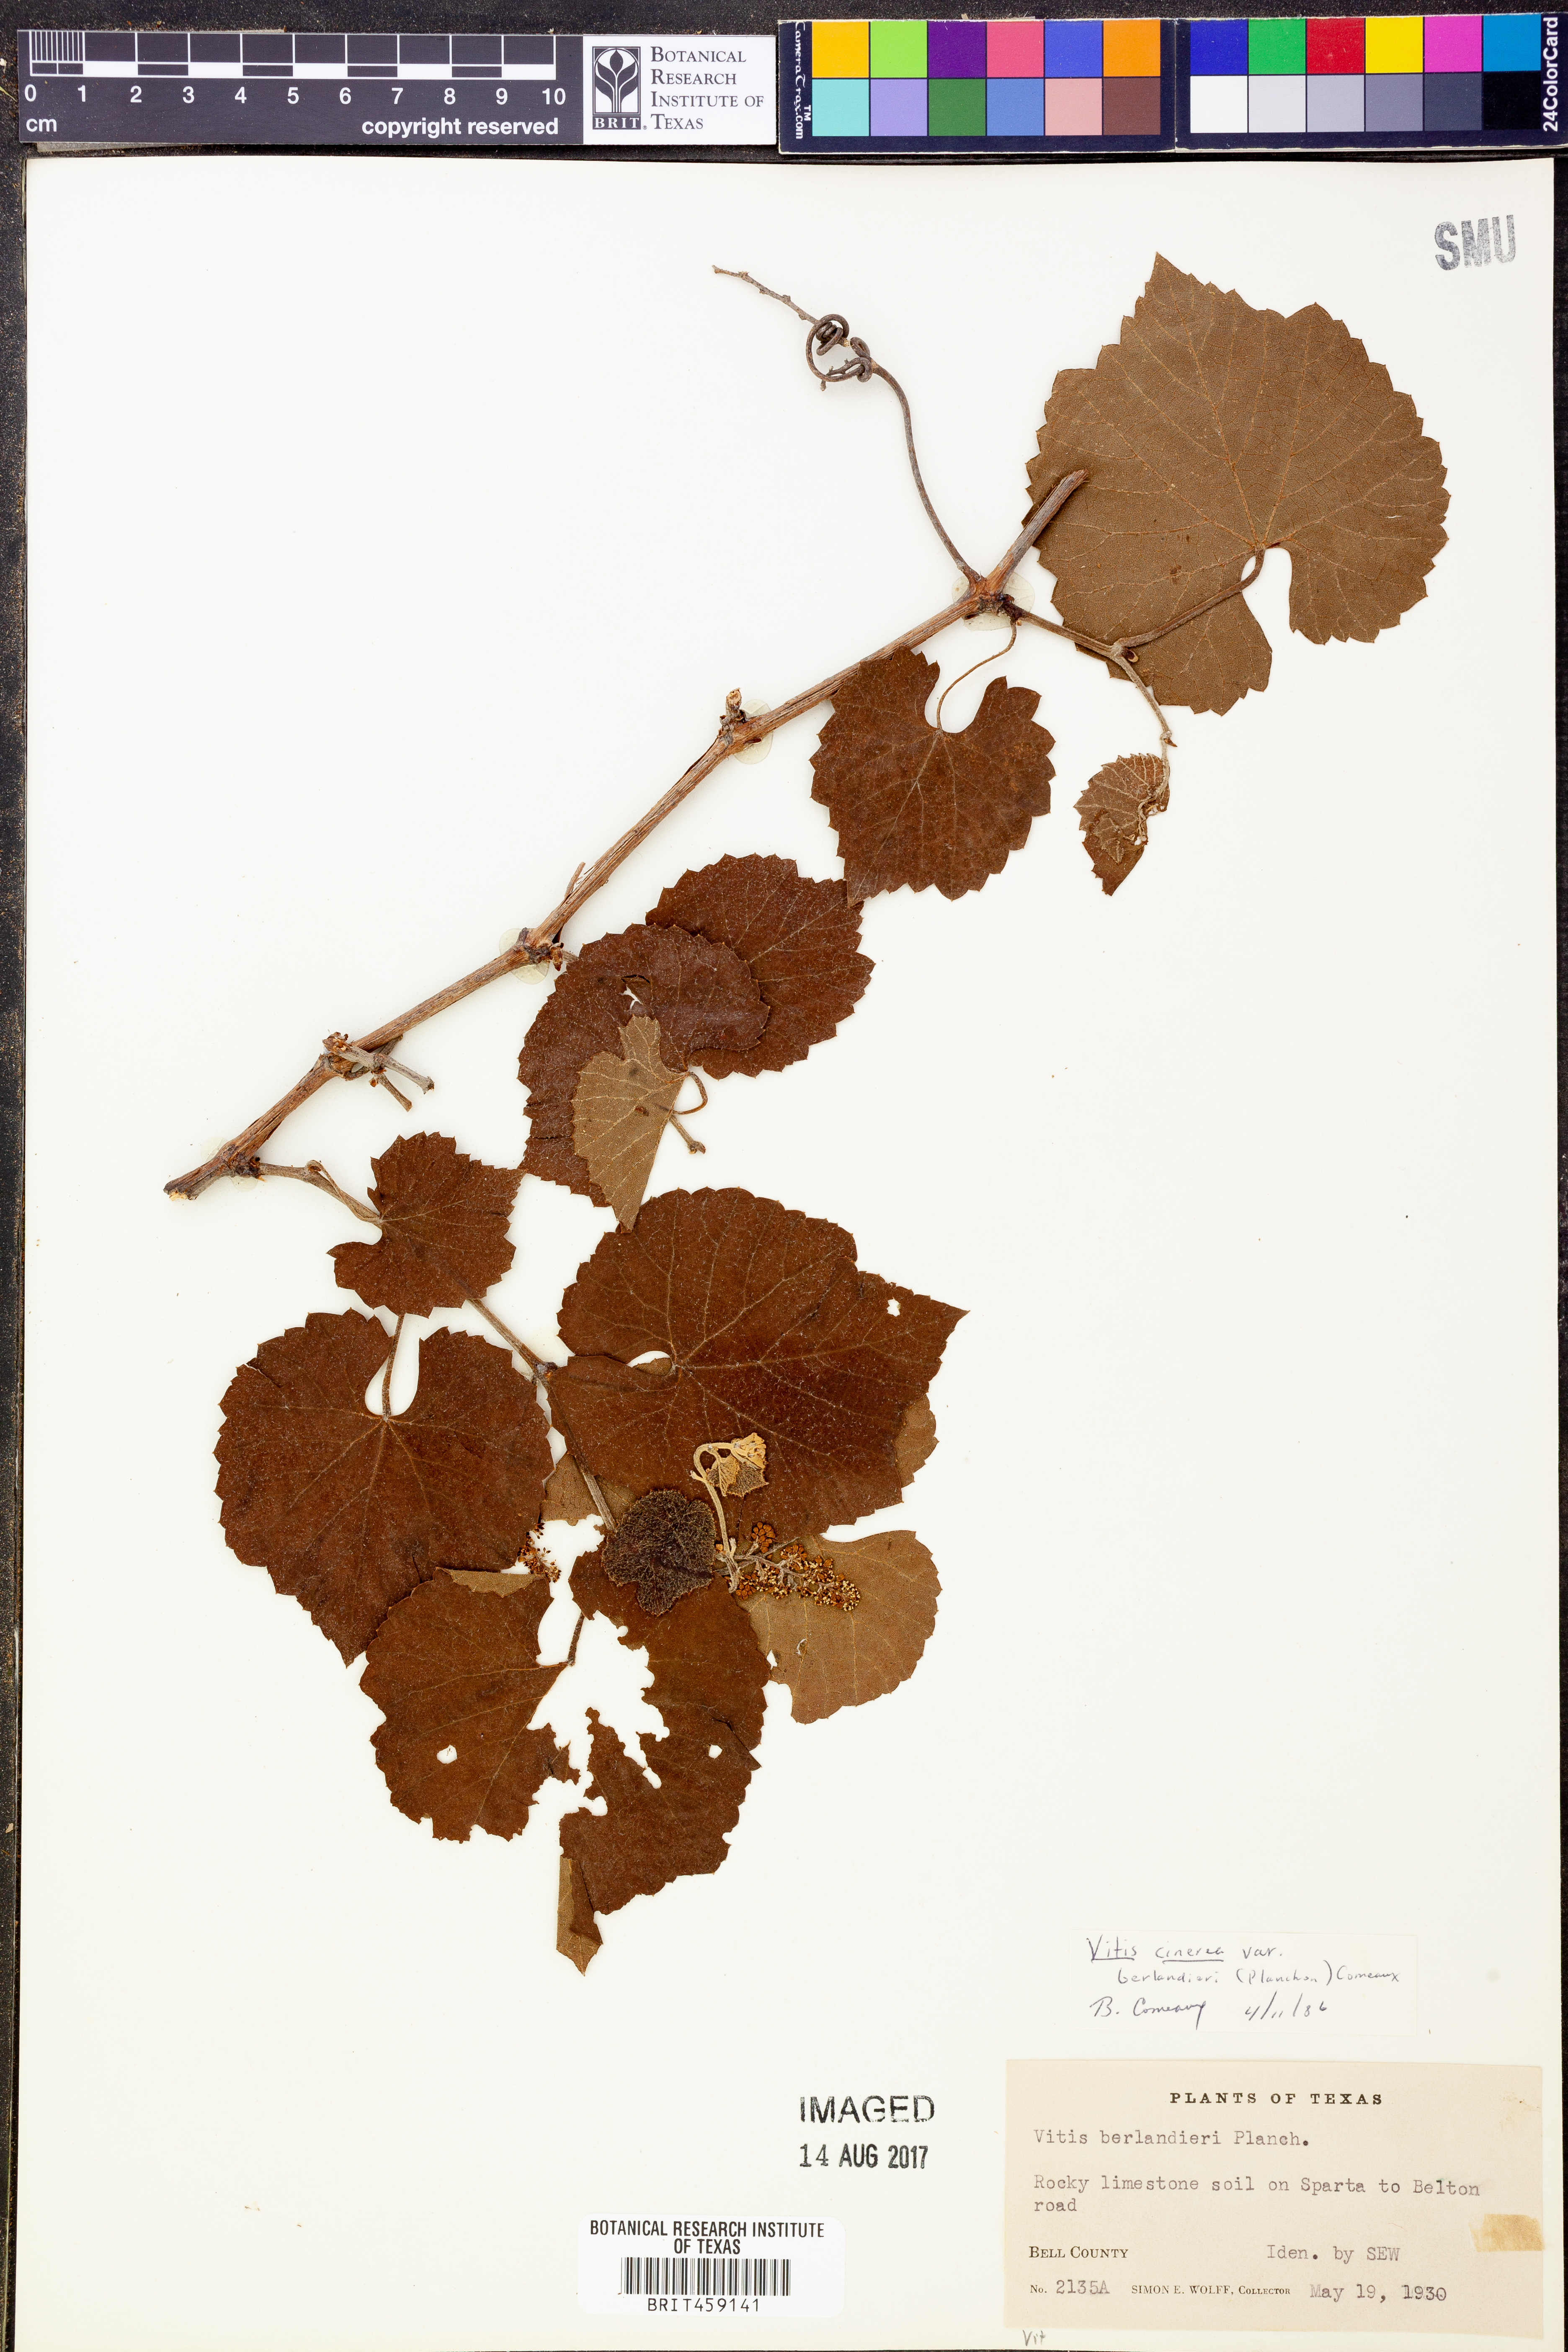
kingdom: Plantae
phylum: Tracheophyta
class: Magnoliopsida
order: Vitales
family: Vitaceae
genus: Vitis
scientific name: Vitis cinerea
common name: Ashy grape
